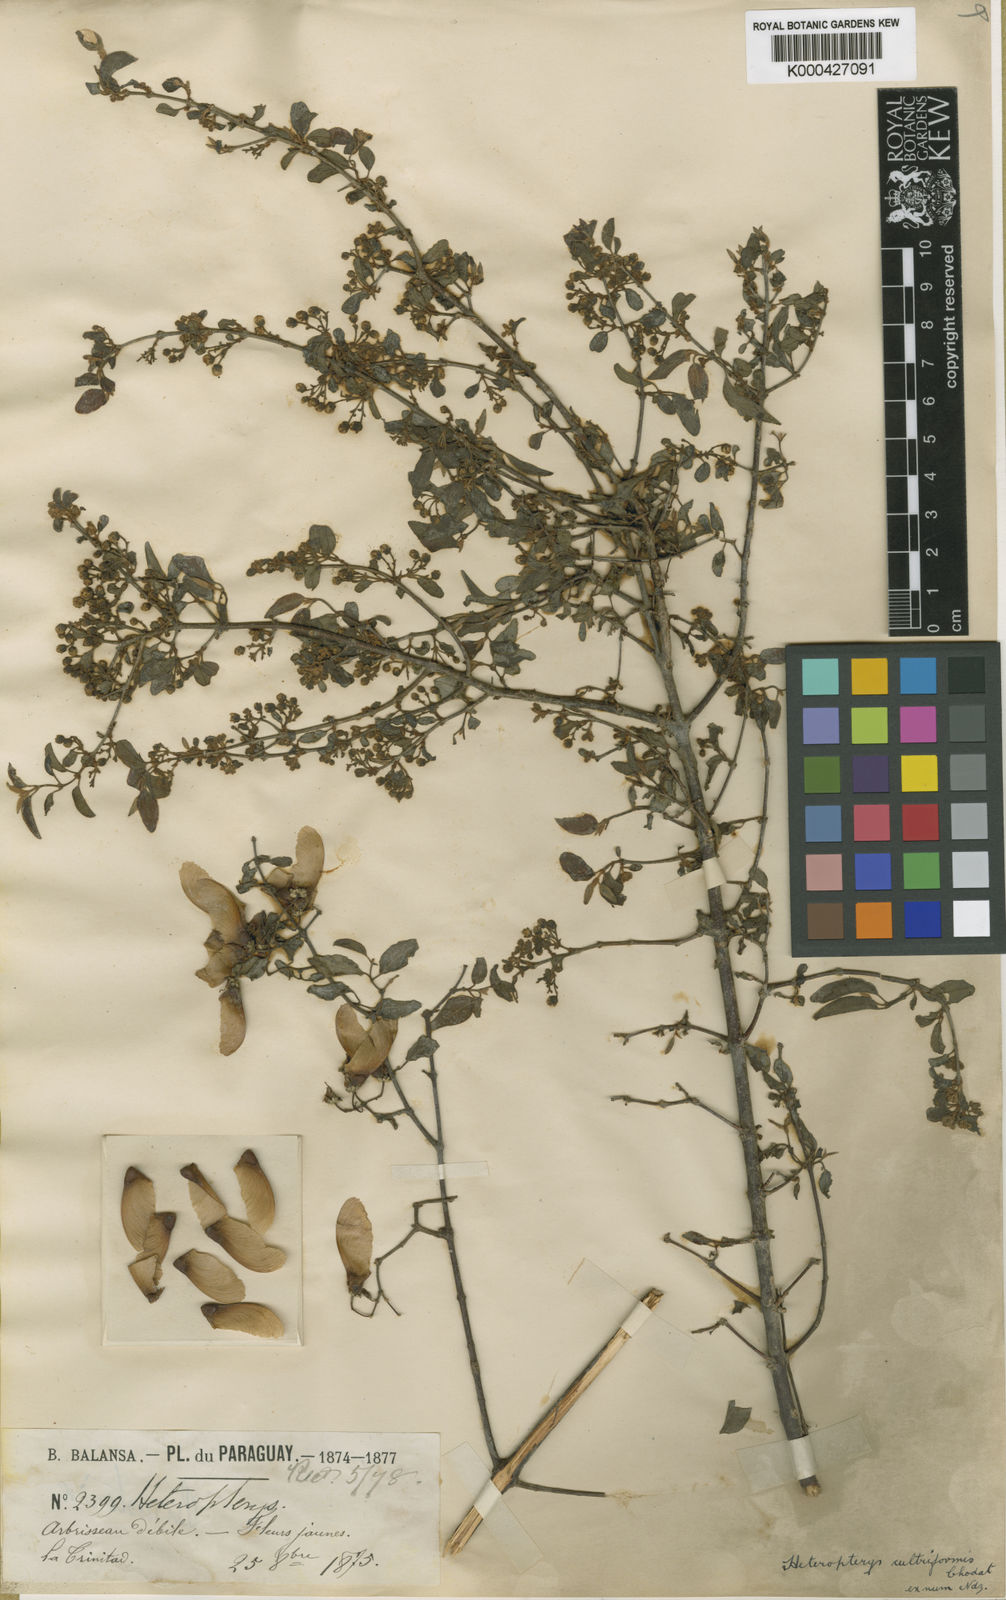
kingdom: Plantae
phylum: Tracheophyta
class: Magnoliopsida
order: Malpighiales
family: Malpighiaceae
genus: Heteropterys
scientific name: Heteropterys cultriformis
